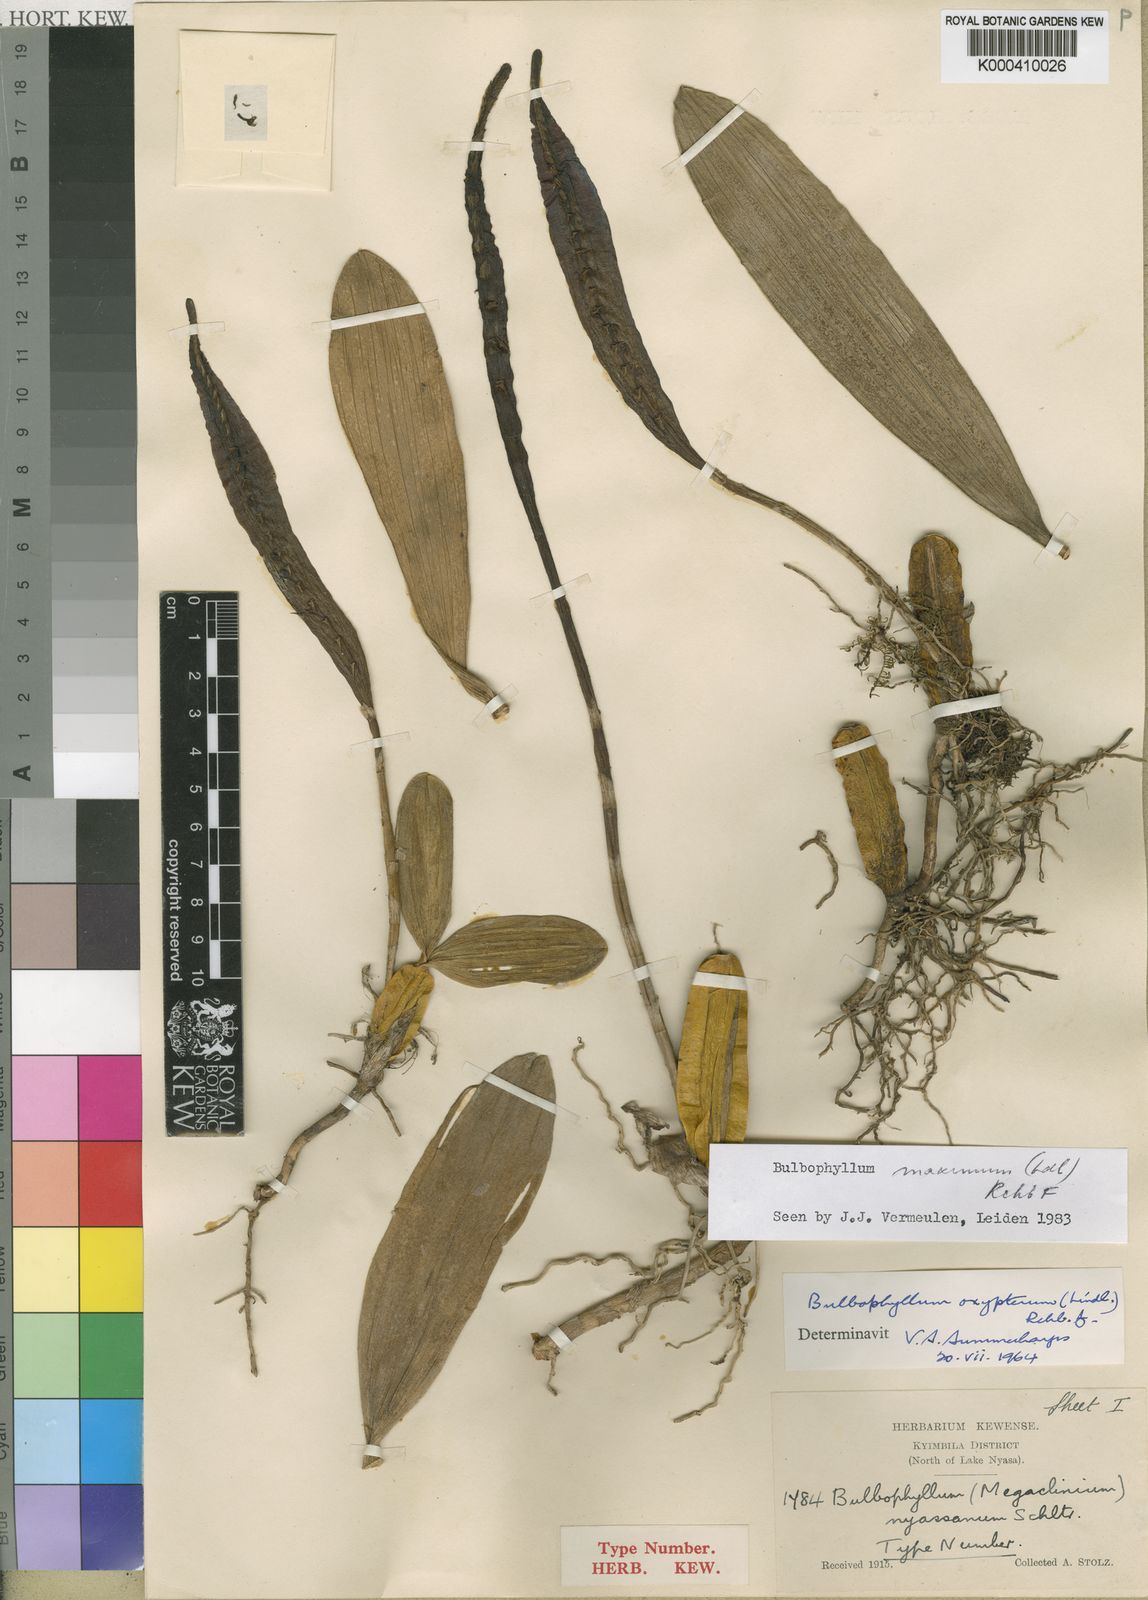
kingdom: Plantae
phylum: Tracheophyta
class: Liliopsida
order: Asparagales
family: Orchidaceae
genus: Bulbophyllum
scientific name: Bulbophyllum maximum
